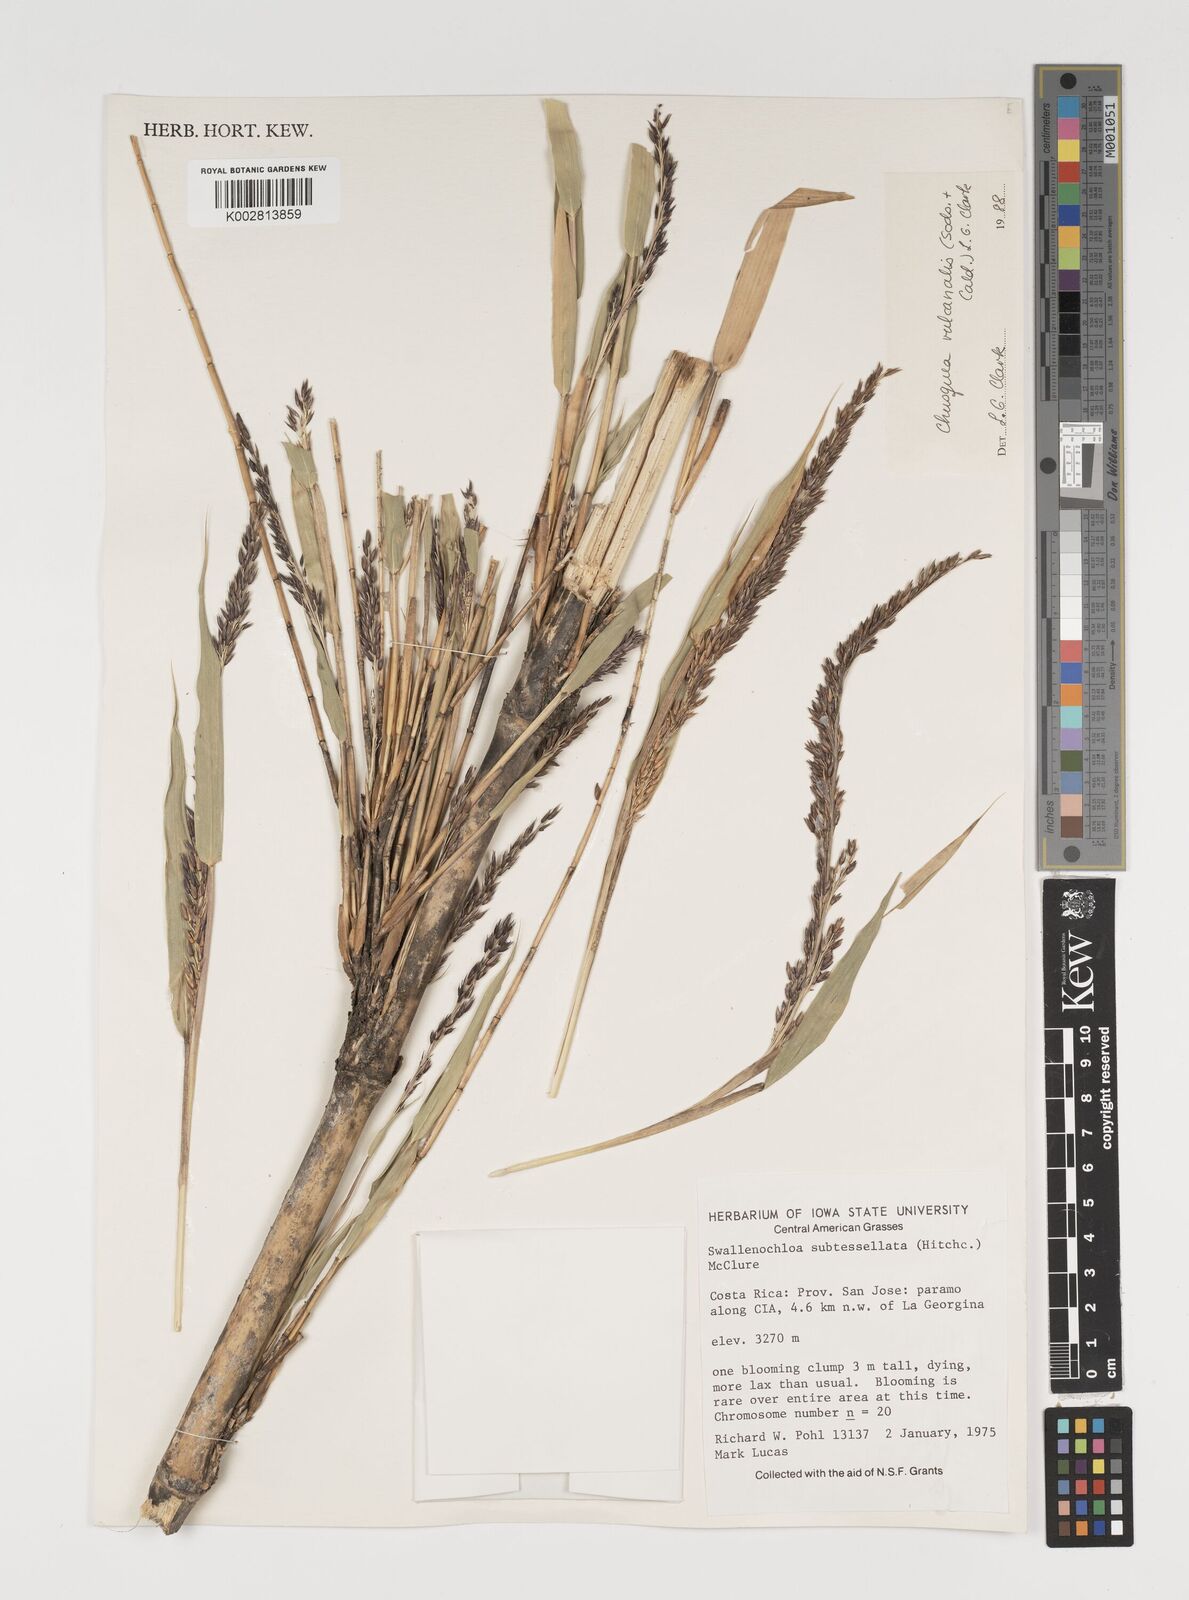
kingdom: Plantae
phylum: Tracheophyta
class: Liliopsida
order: Poales
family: Poaceae
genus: Chusquea
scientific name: Chusquea vulcanalis
